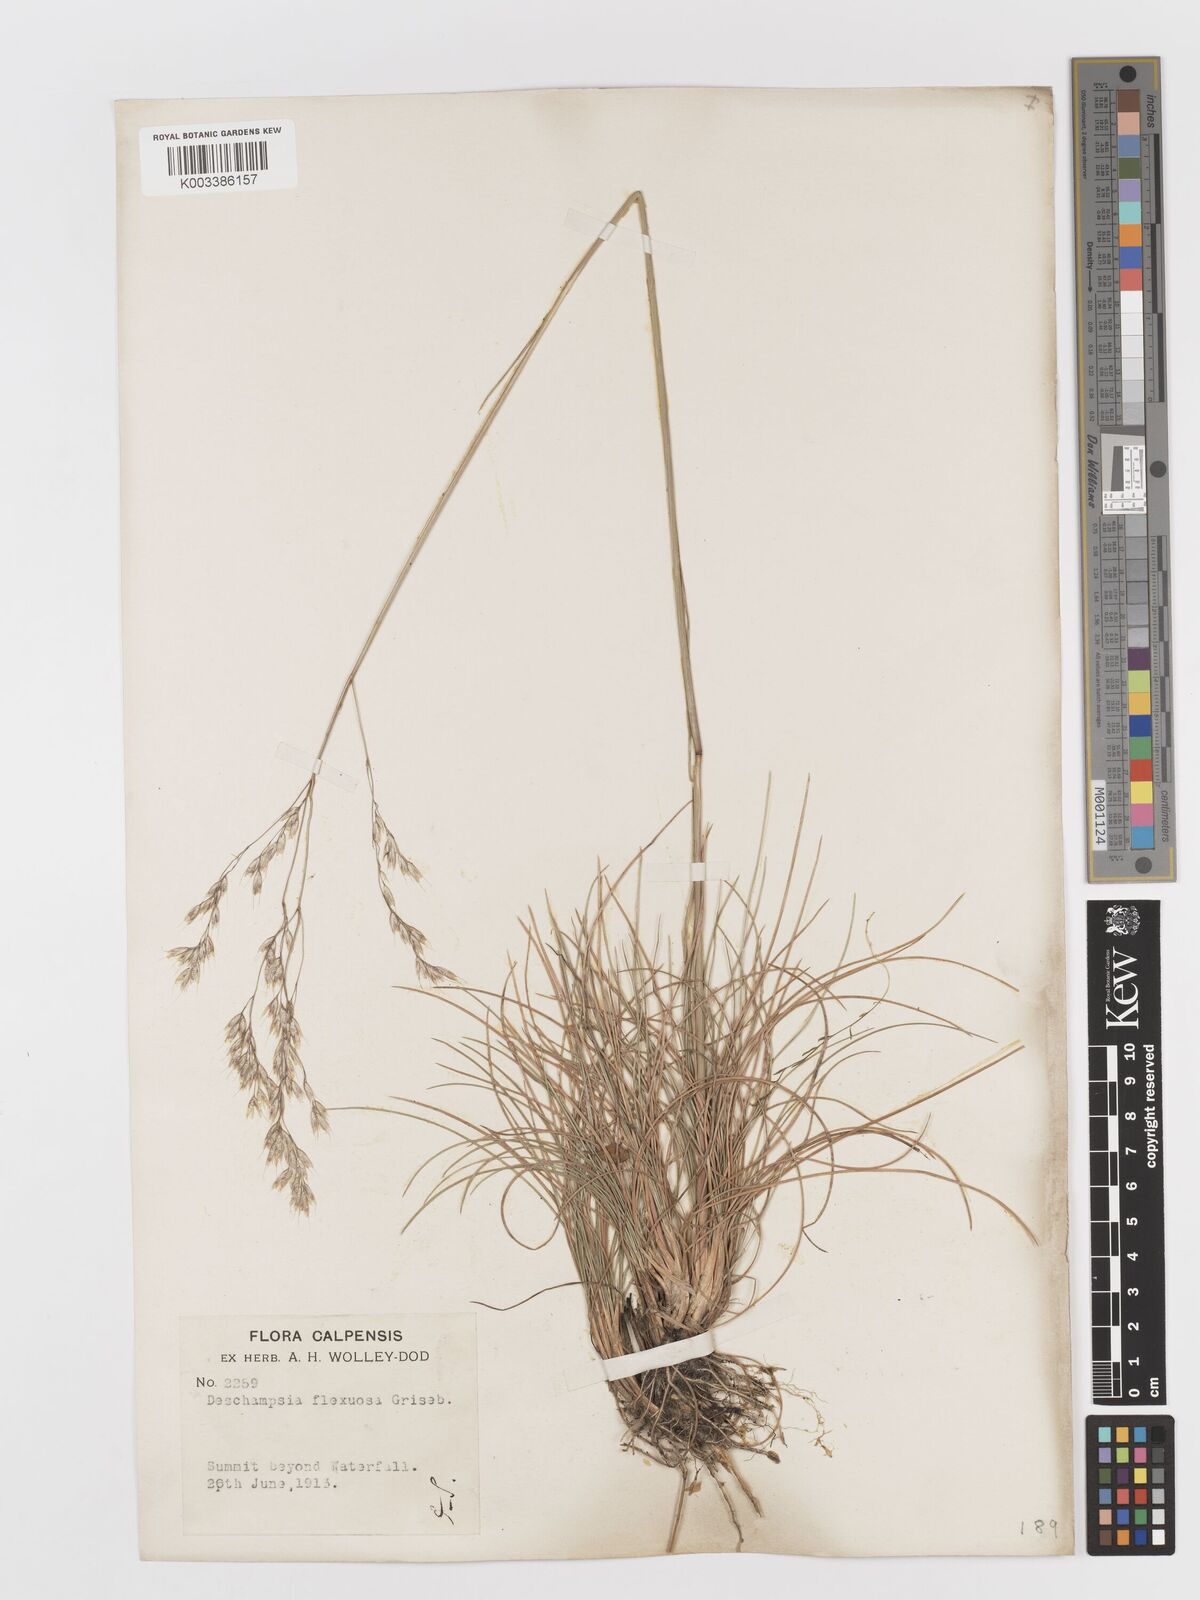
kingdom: Plantae
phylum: Tracheophyta
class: Liliopsida
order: Poales
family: Poaceae
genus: Avenella
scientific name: Avenella flexuosa
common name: Wavy hairgrass
